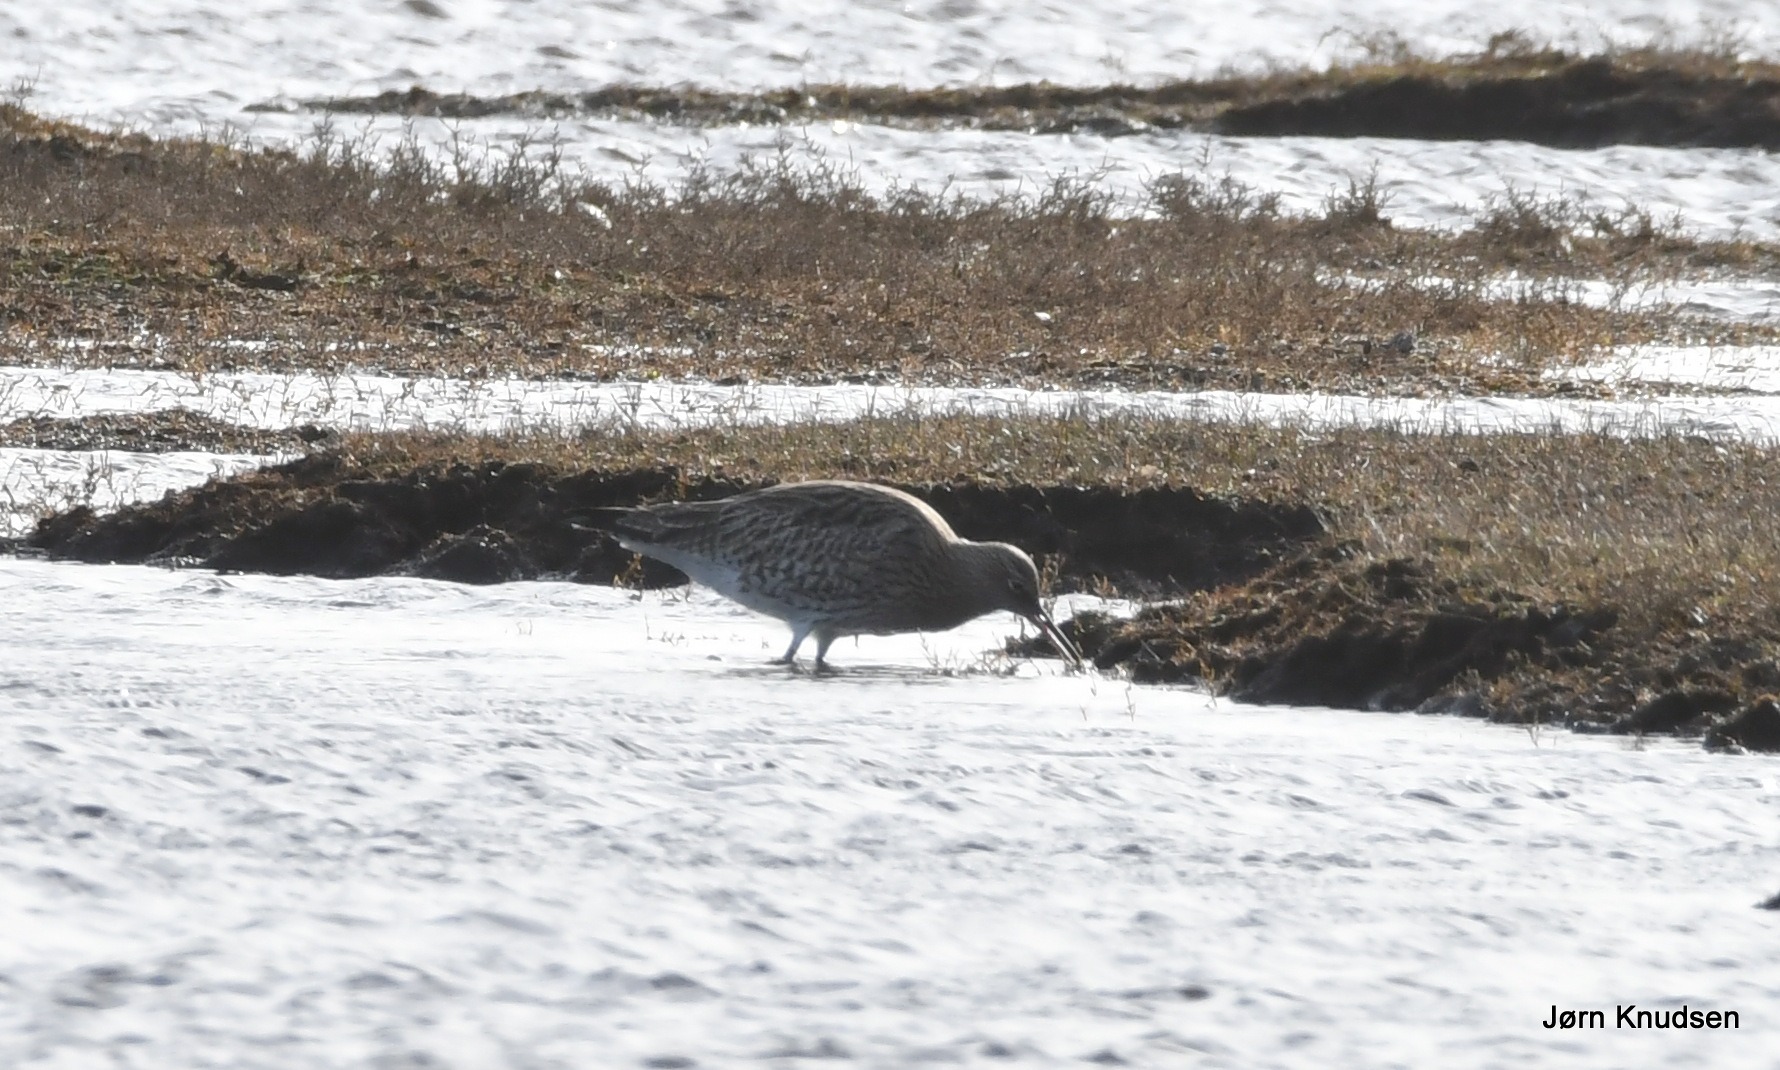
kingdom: Animalia
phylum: Chordata
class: Aves
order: Charadriiformes
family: Scolopacidae
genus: Numenius
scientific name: Numenius arquata
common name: Storspove
